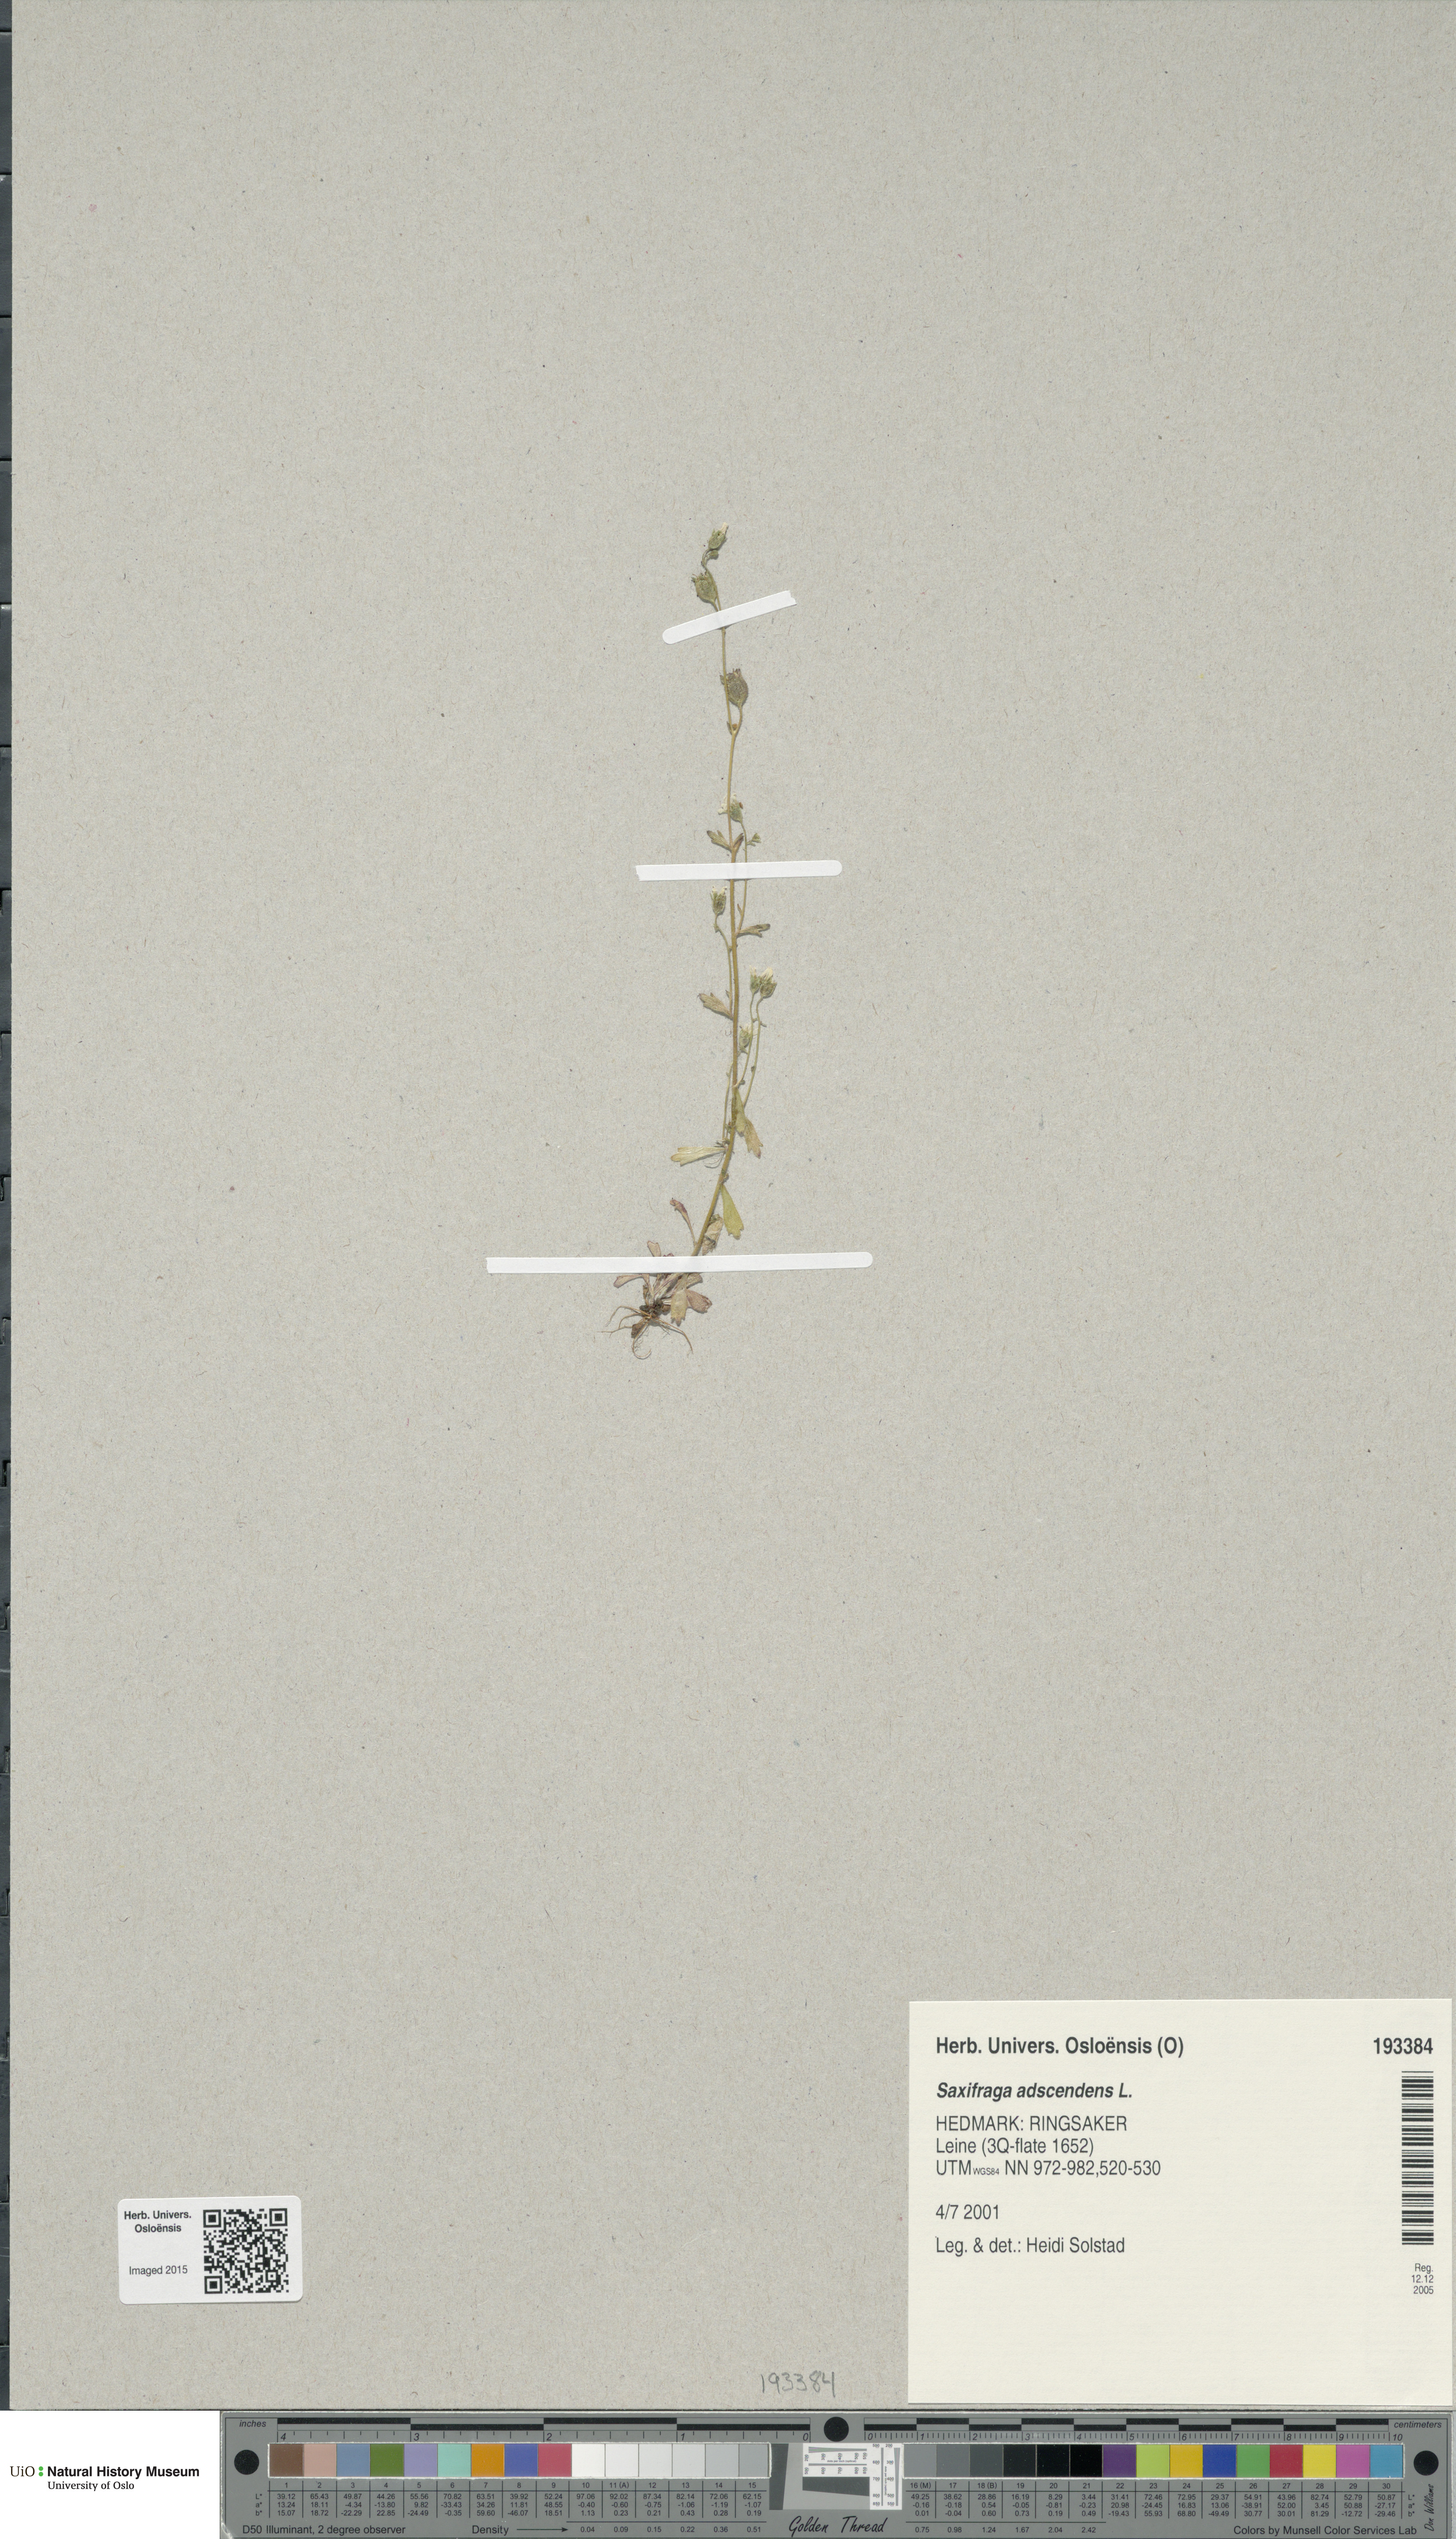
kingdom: Plantae
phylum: Tracheophyta
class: Magnoliopsida
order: Saxifragales
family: Saxifragaceae
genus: Saxifraga
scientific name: Saxifraga adscendens
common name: Ascending saxifrage
